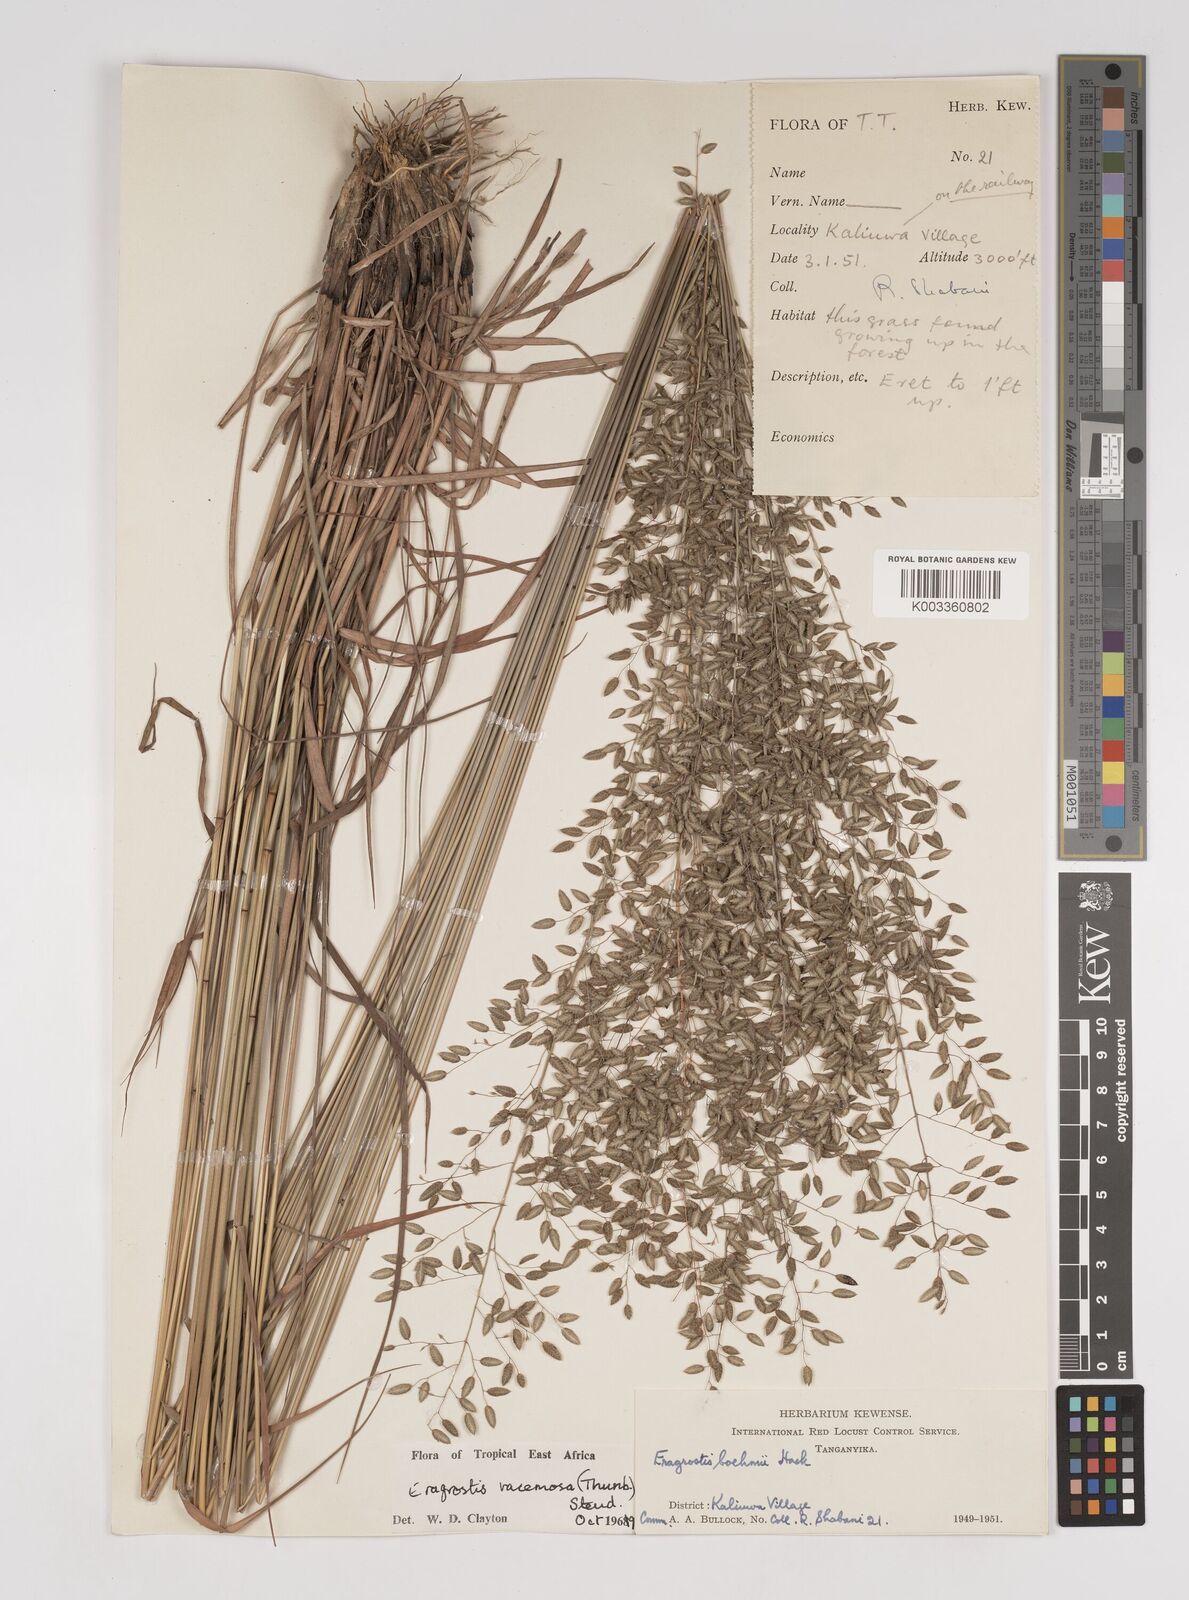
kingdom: Plantae
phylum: Tracheophyta
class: Liliopsida
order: Poales
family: Poaceae
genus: Eragrostis
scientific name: Eragrostis racemosa
